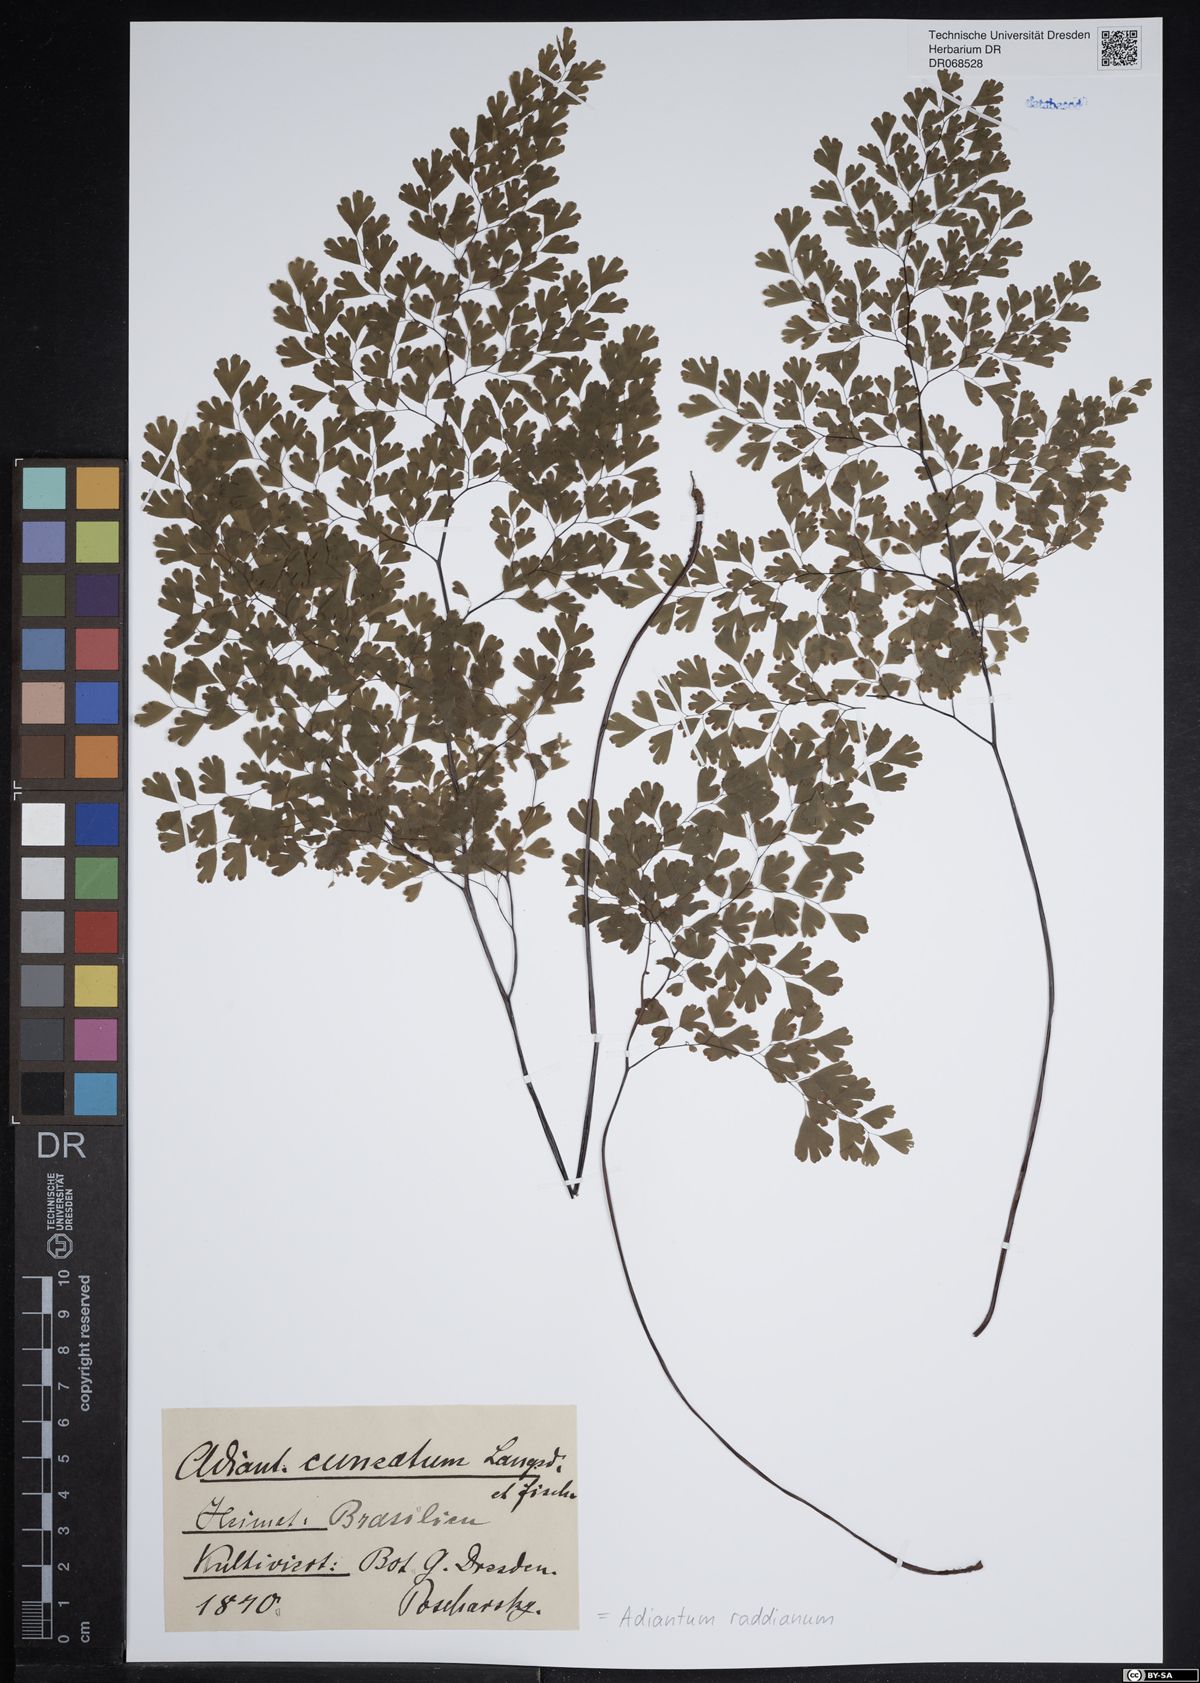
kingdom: Plantae
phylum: Tracheophyta
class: Polypodiopsida
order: Polypodiales
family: Pteridaceae
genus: Adiantum
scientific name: Adiantum raddianum
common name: Delta maidenhair fern
